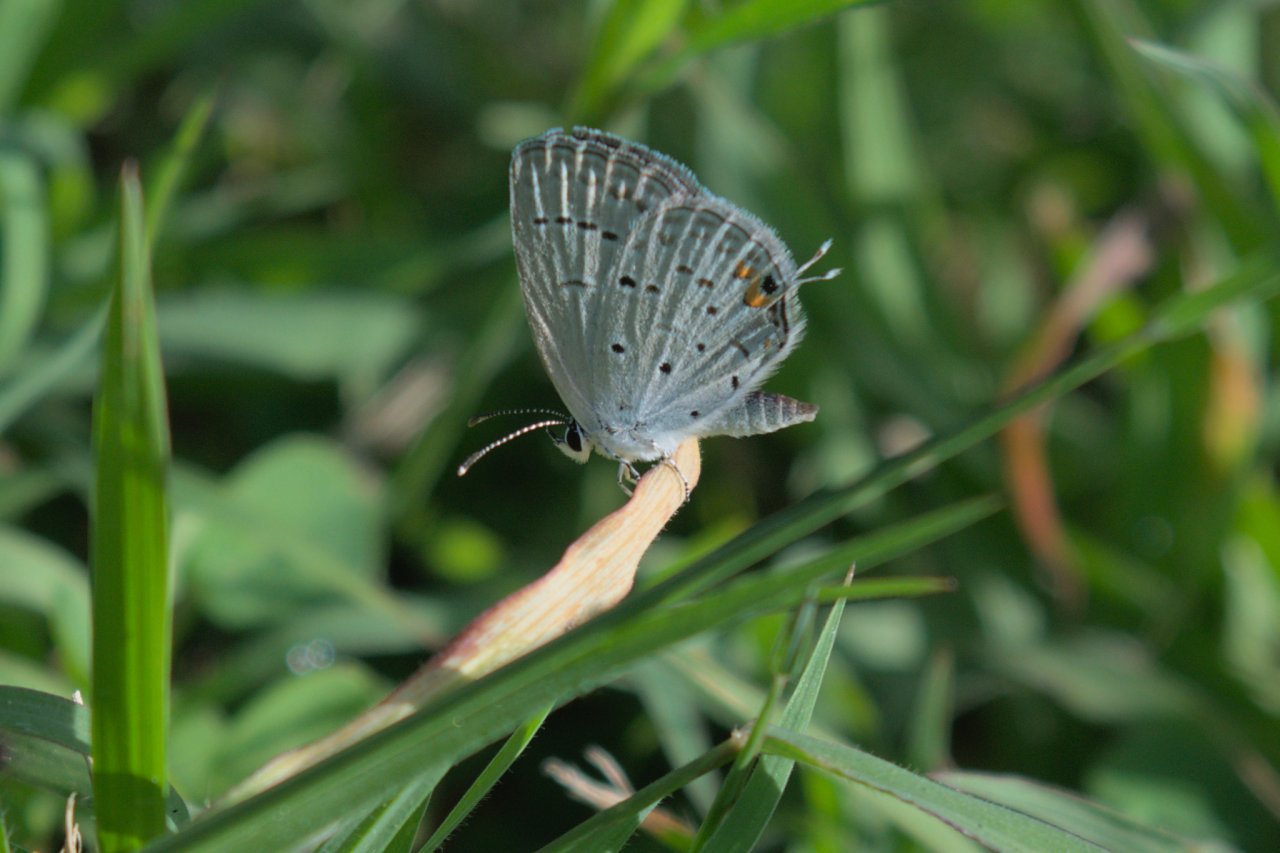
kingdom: Animalia
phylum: Arthropoda
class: Insecta
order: Lepidoptera
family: Lycaenidae
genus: Elkalyce
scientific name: Elkalyce comyntas
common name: Eastern Tailed-Blue
